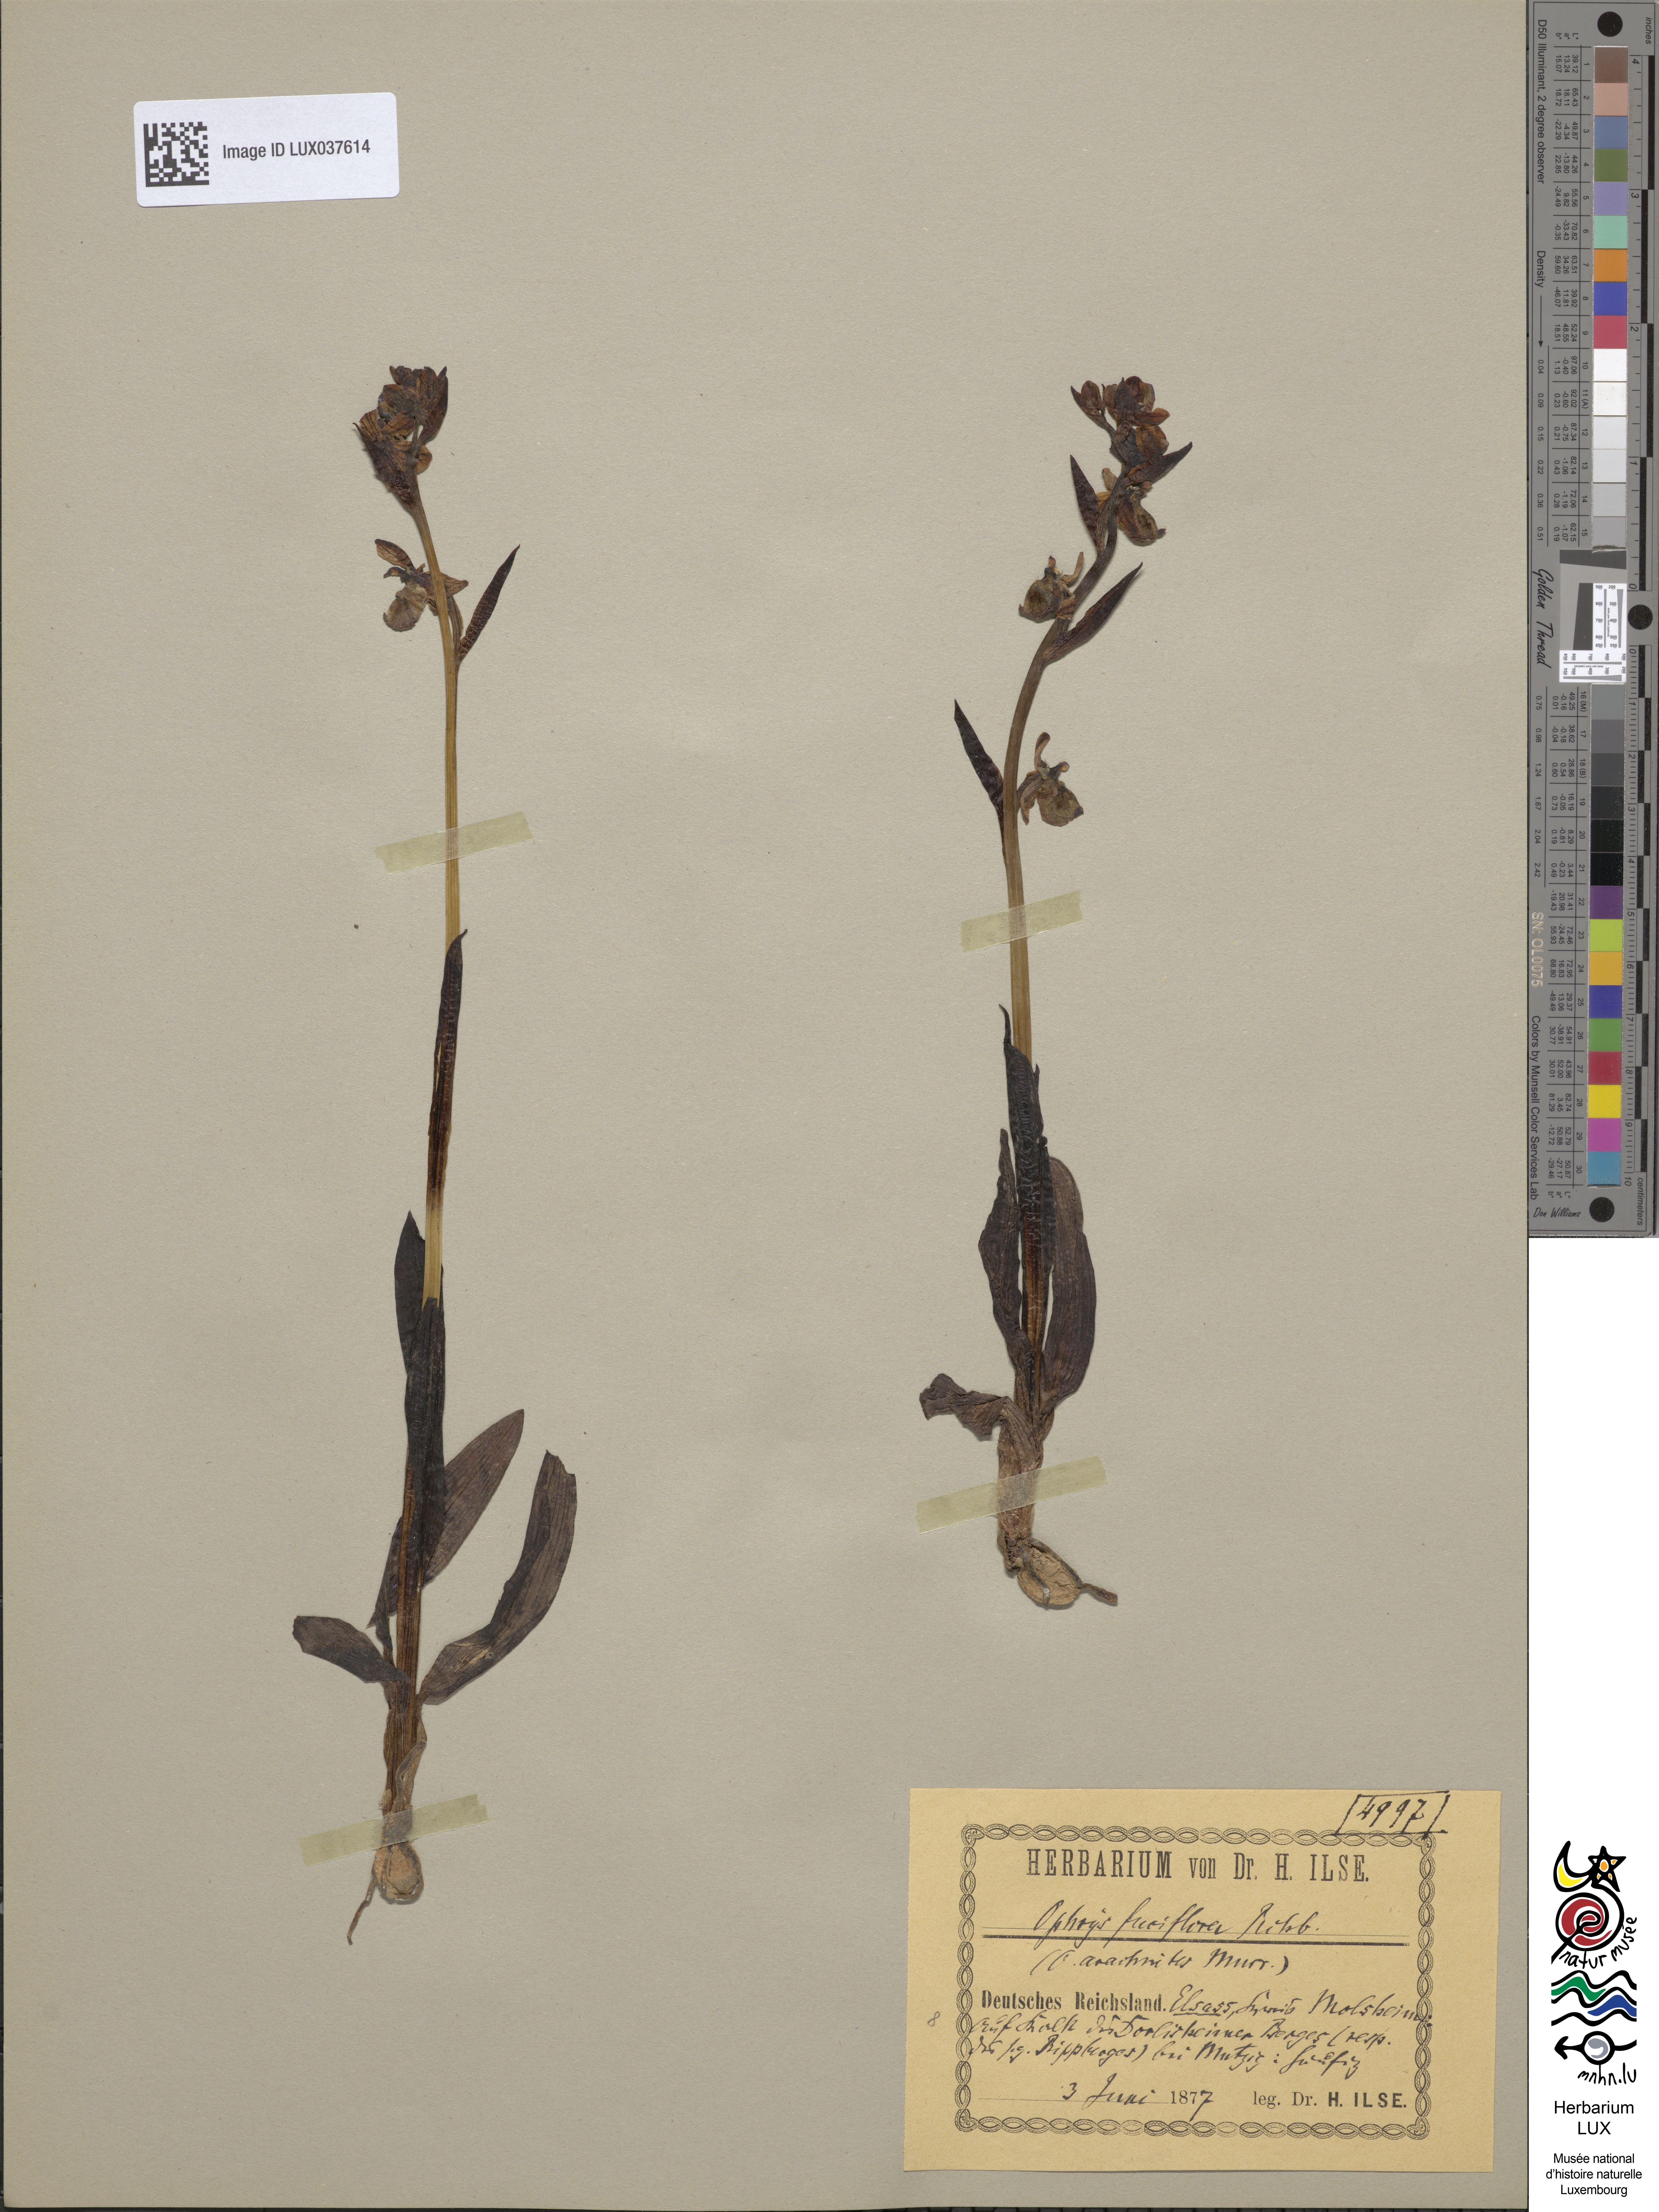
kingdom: Plantae
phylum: Tracheophyta
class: Liliopsida
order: Asparagales
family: Orchidaceae
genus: Ophrys
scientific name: Ophrys holosericea
